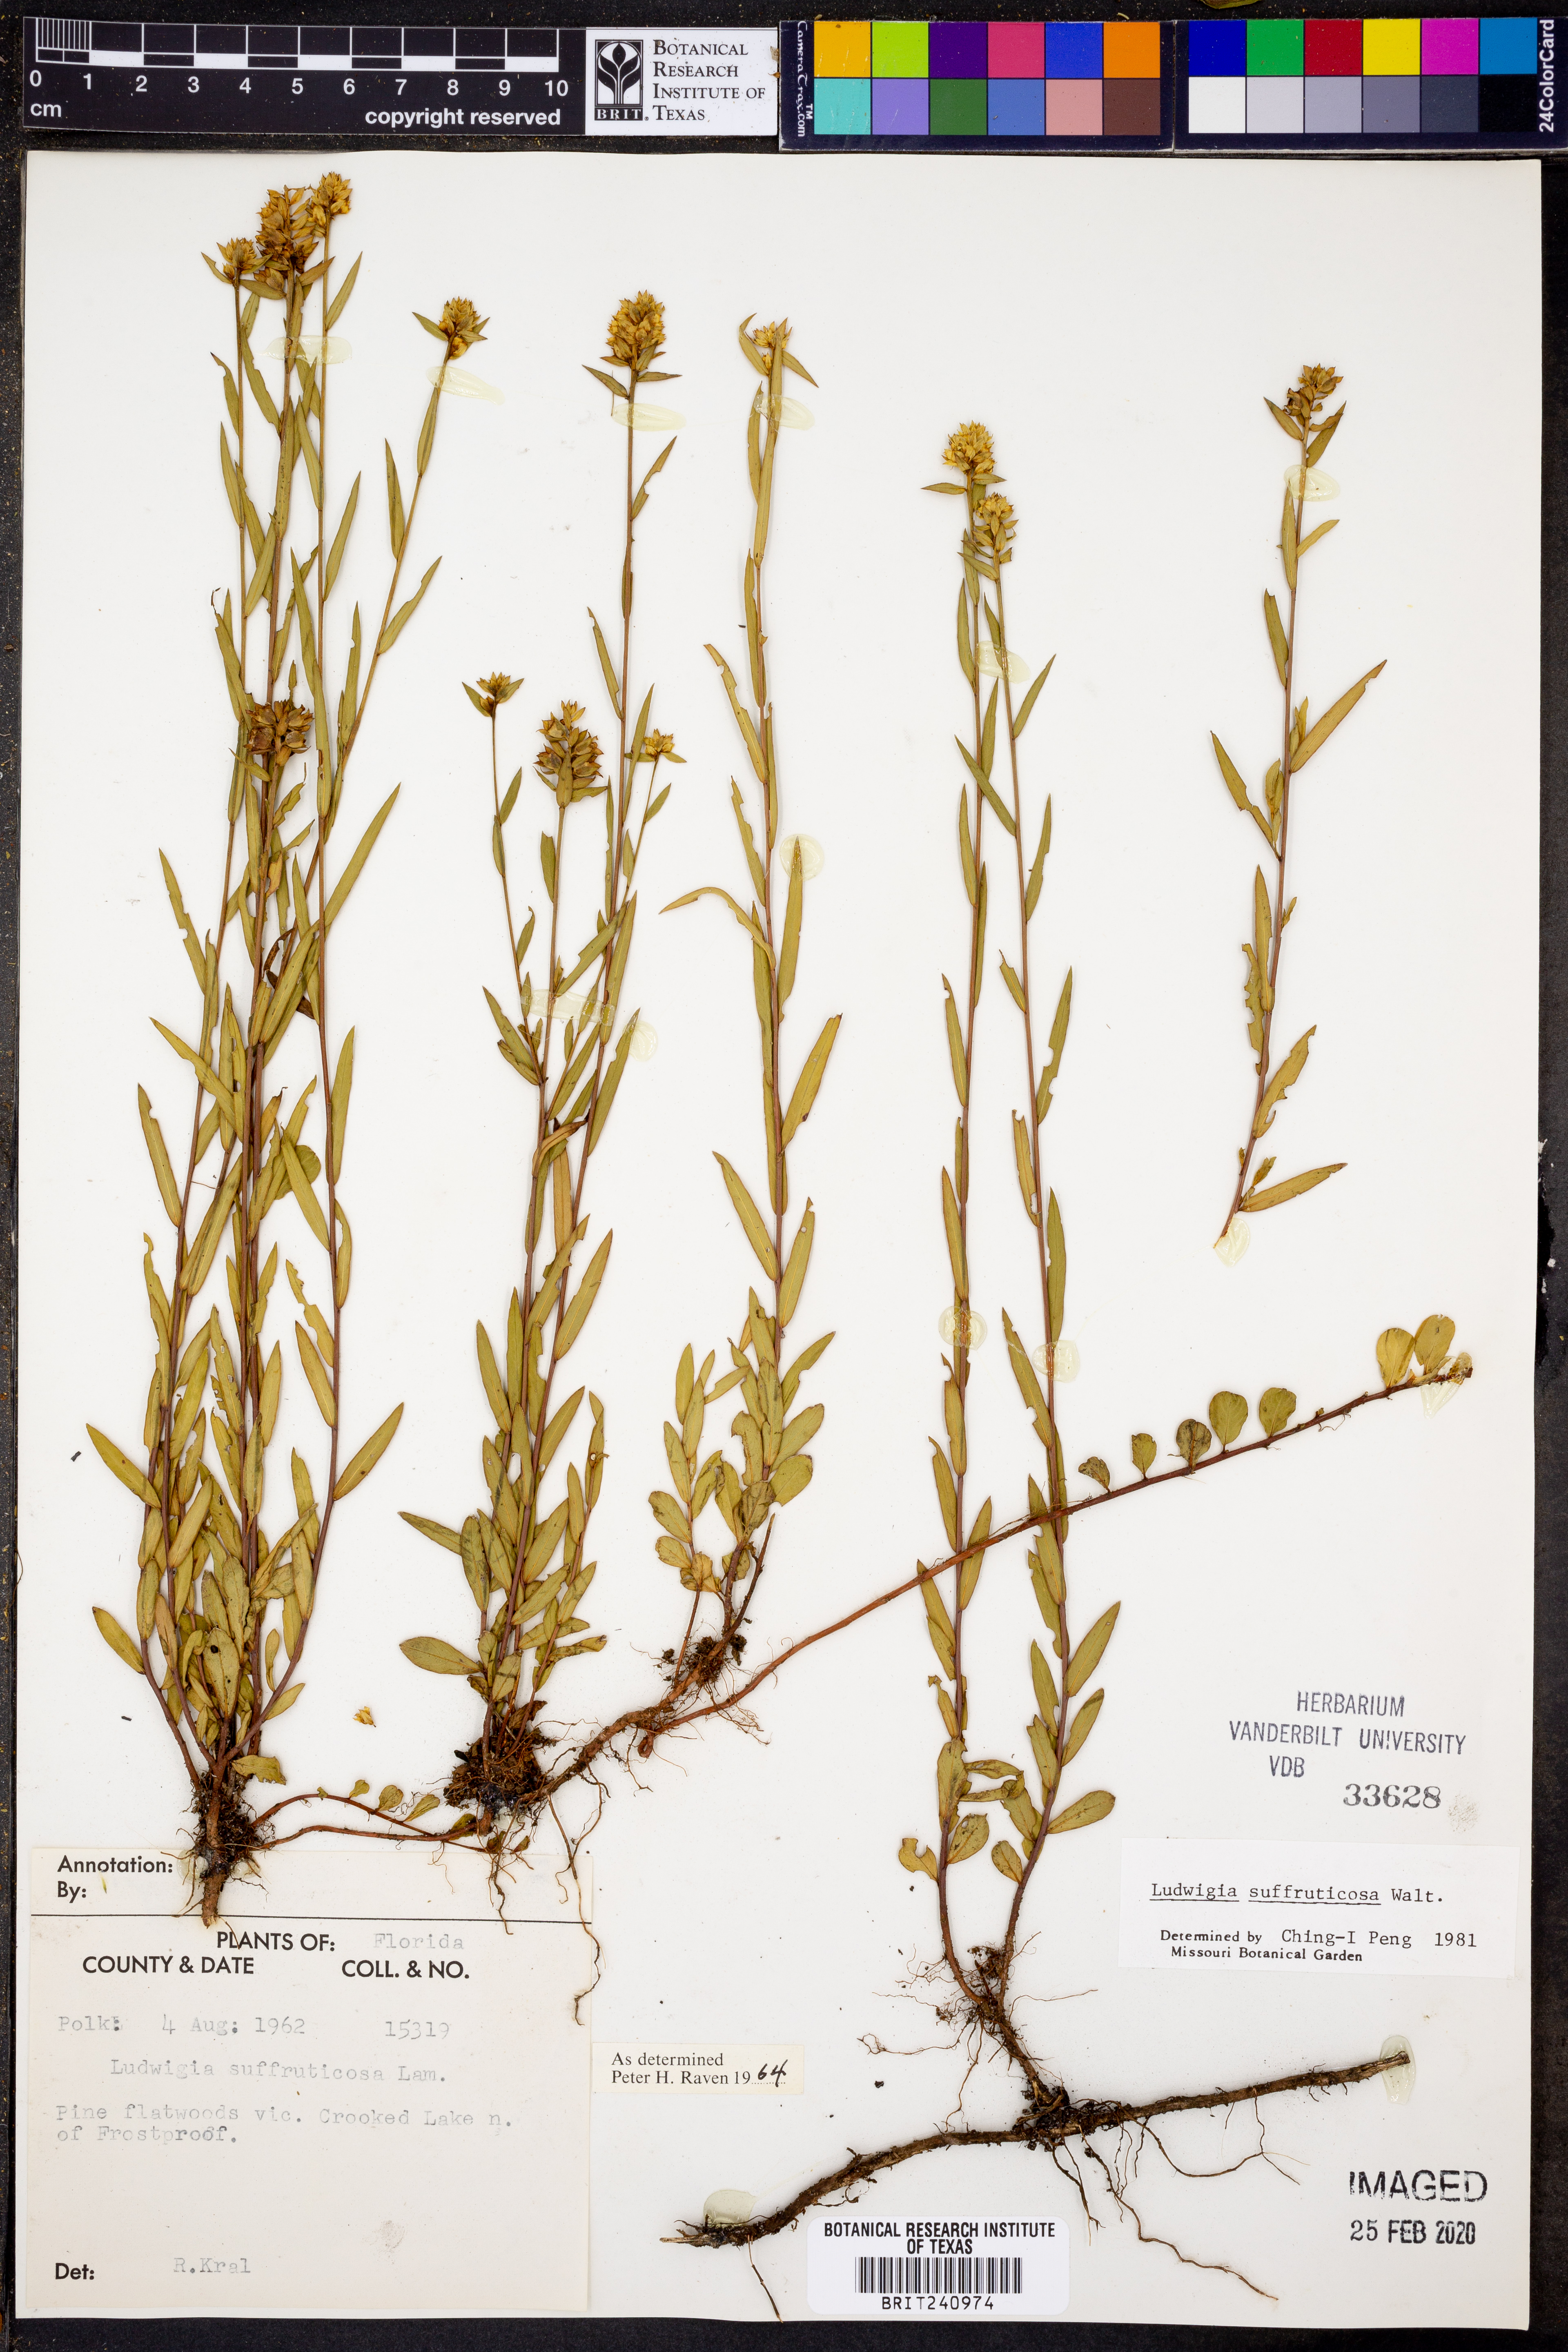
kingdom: Plantae
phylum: Tracheophyta
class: Magnoliopsida
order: Myrtales
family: Onagraceae
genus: Ludwigia
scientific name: Ludwigia suffruticosa
